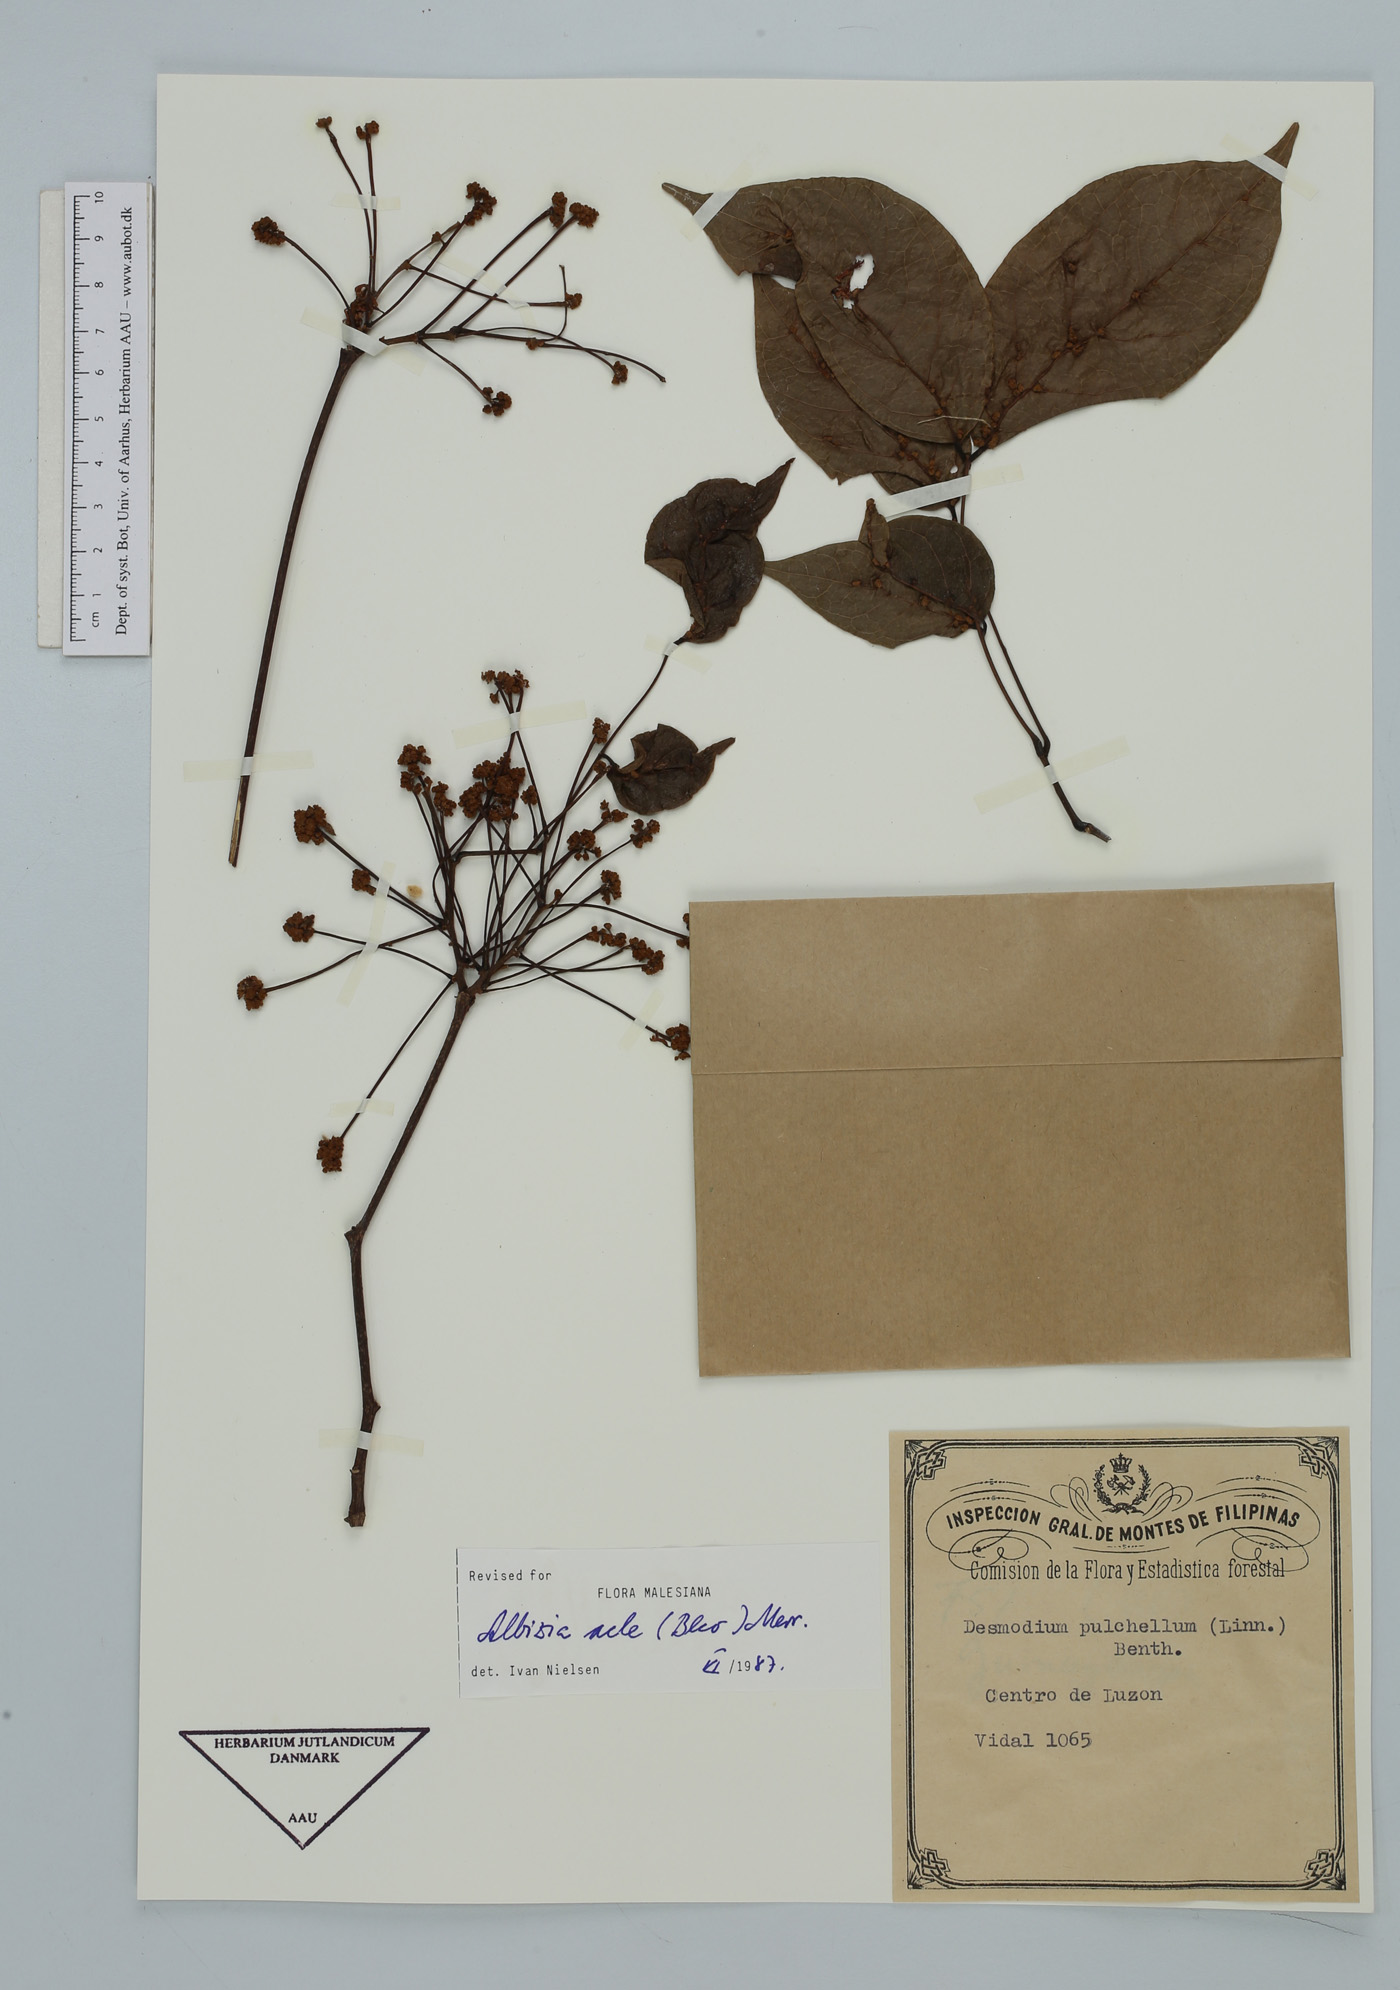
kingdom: Plantae
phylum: Tracheophyta
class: Magnoliopsida
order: Fabales
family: Fabaceae
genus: Albizia
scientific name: Albizia acle
